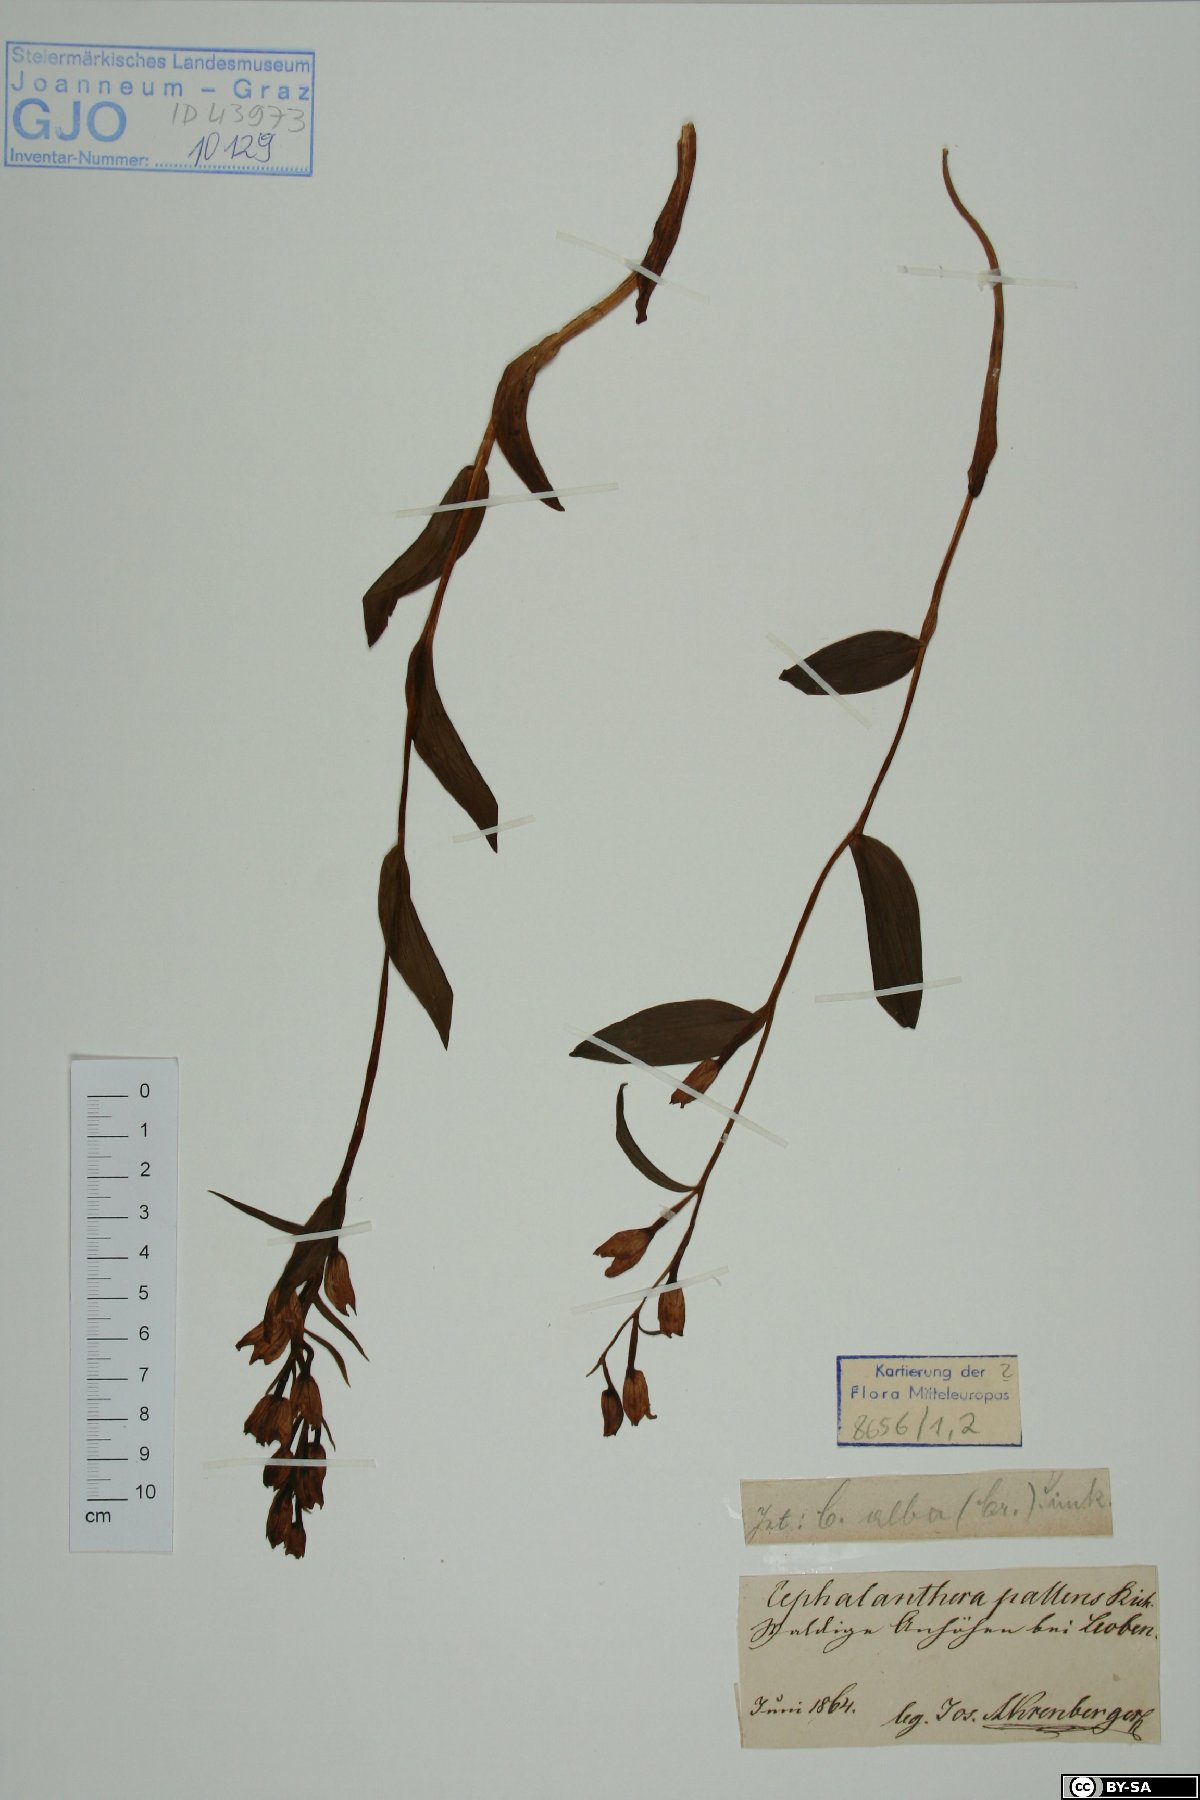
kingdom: Plantae
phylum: Tracheophyta
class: Liliopsida
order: Asparagales
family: Orchidaceae
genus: Cephalanthera
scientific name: Cephalanthera longifolia
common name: Narrow-leaved helleborine
